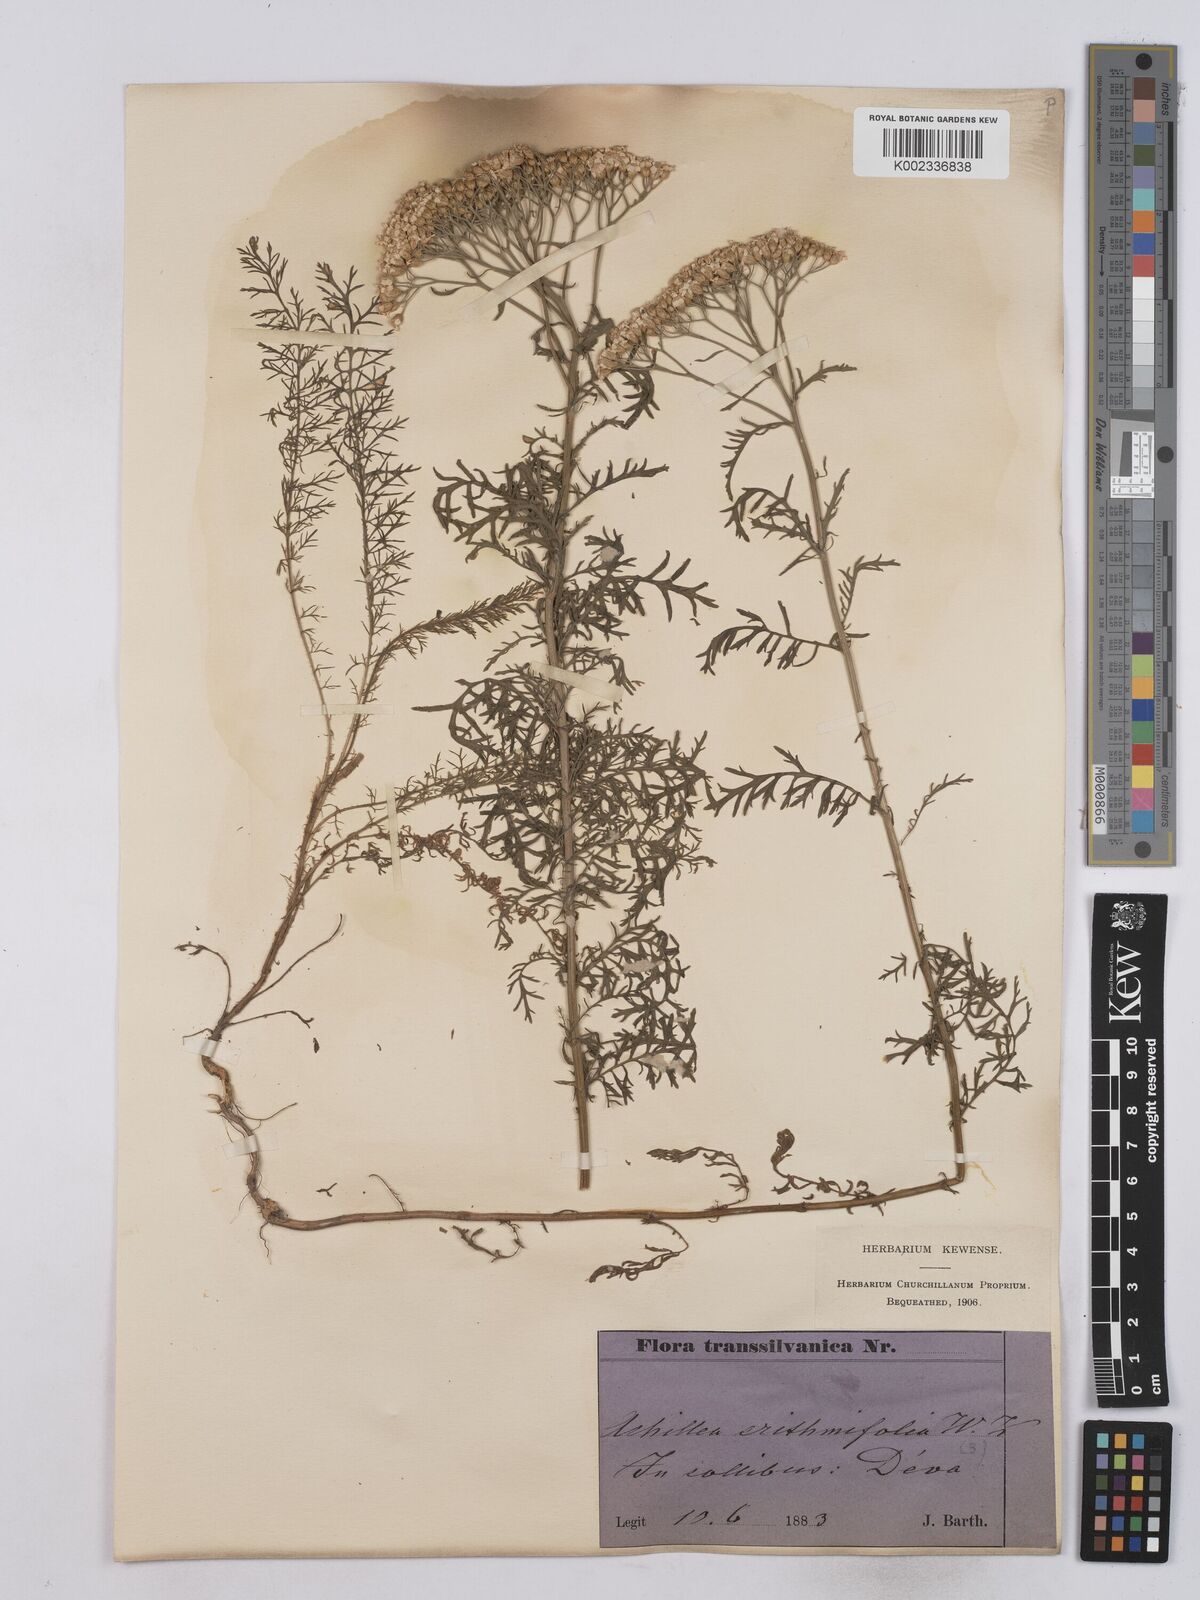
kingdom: Plantae
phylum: Tracheophyta
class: Magnoliopsida
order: Asterales
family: Asteraceae
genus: Achillea
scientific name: Achillea crithmifolia
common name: Yarrow
